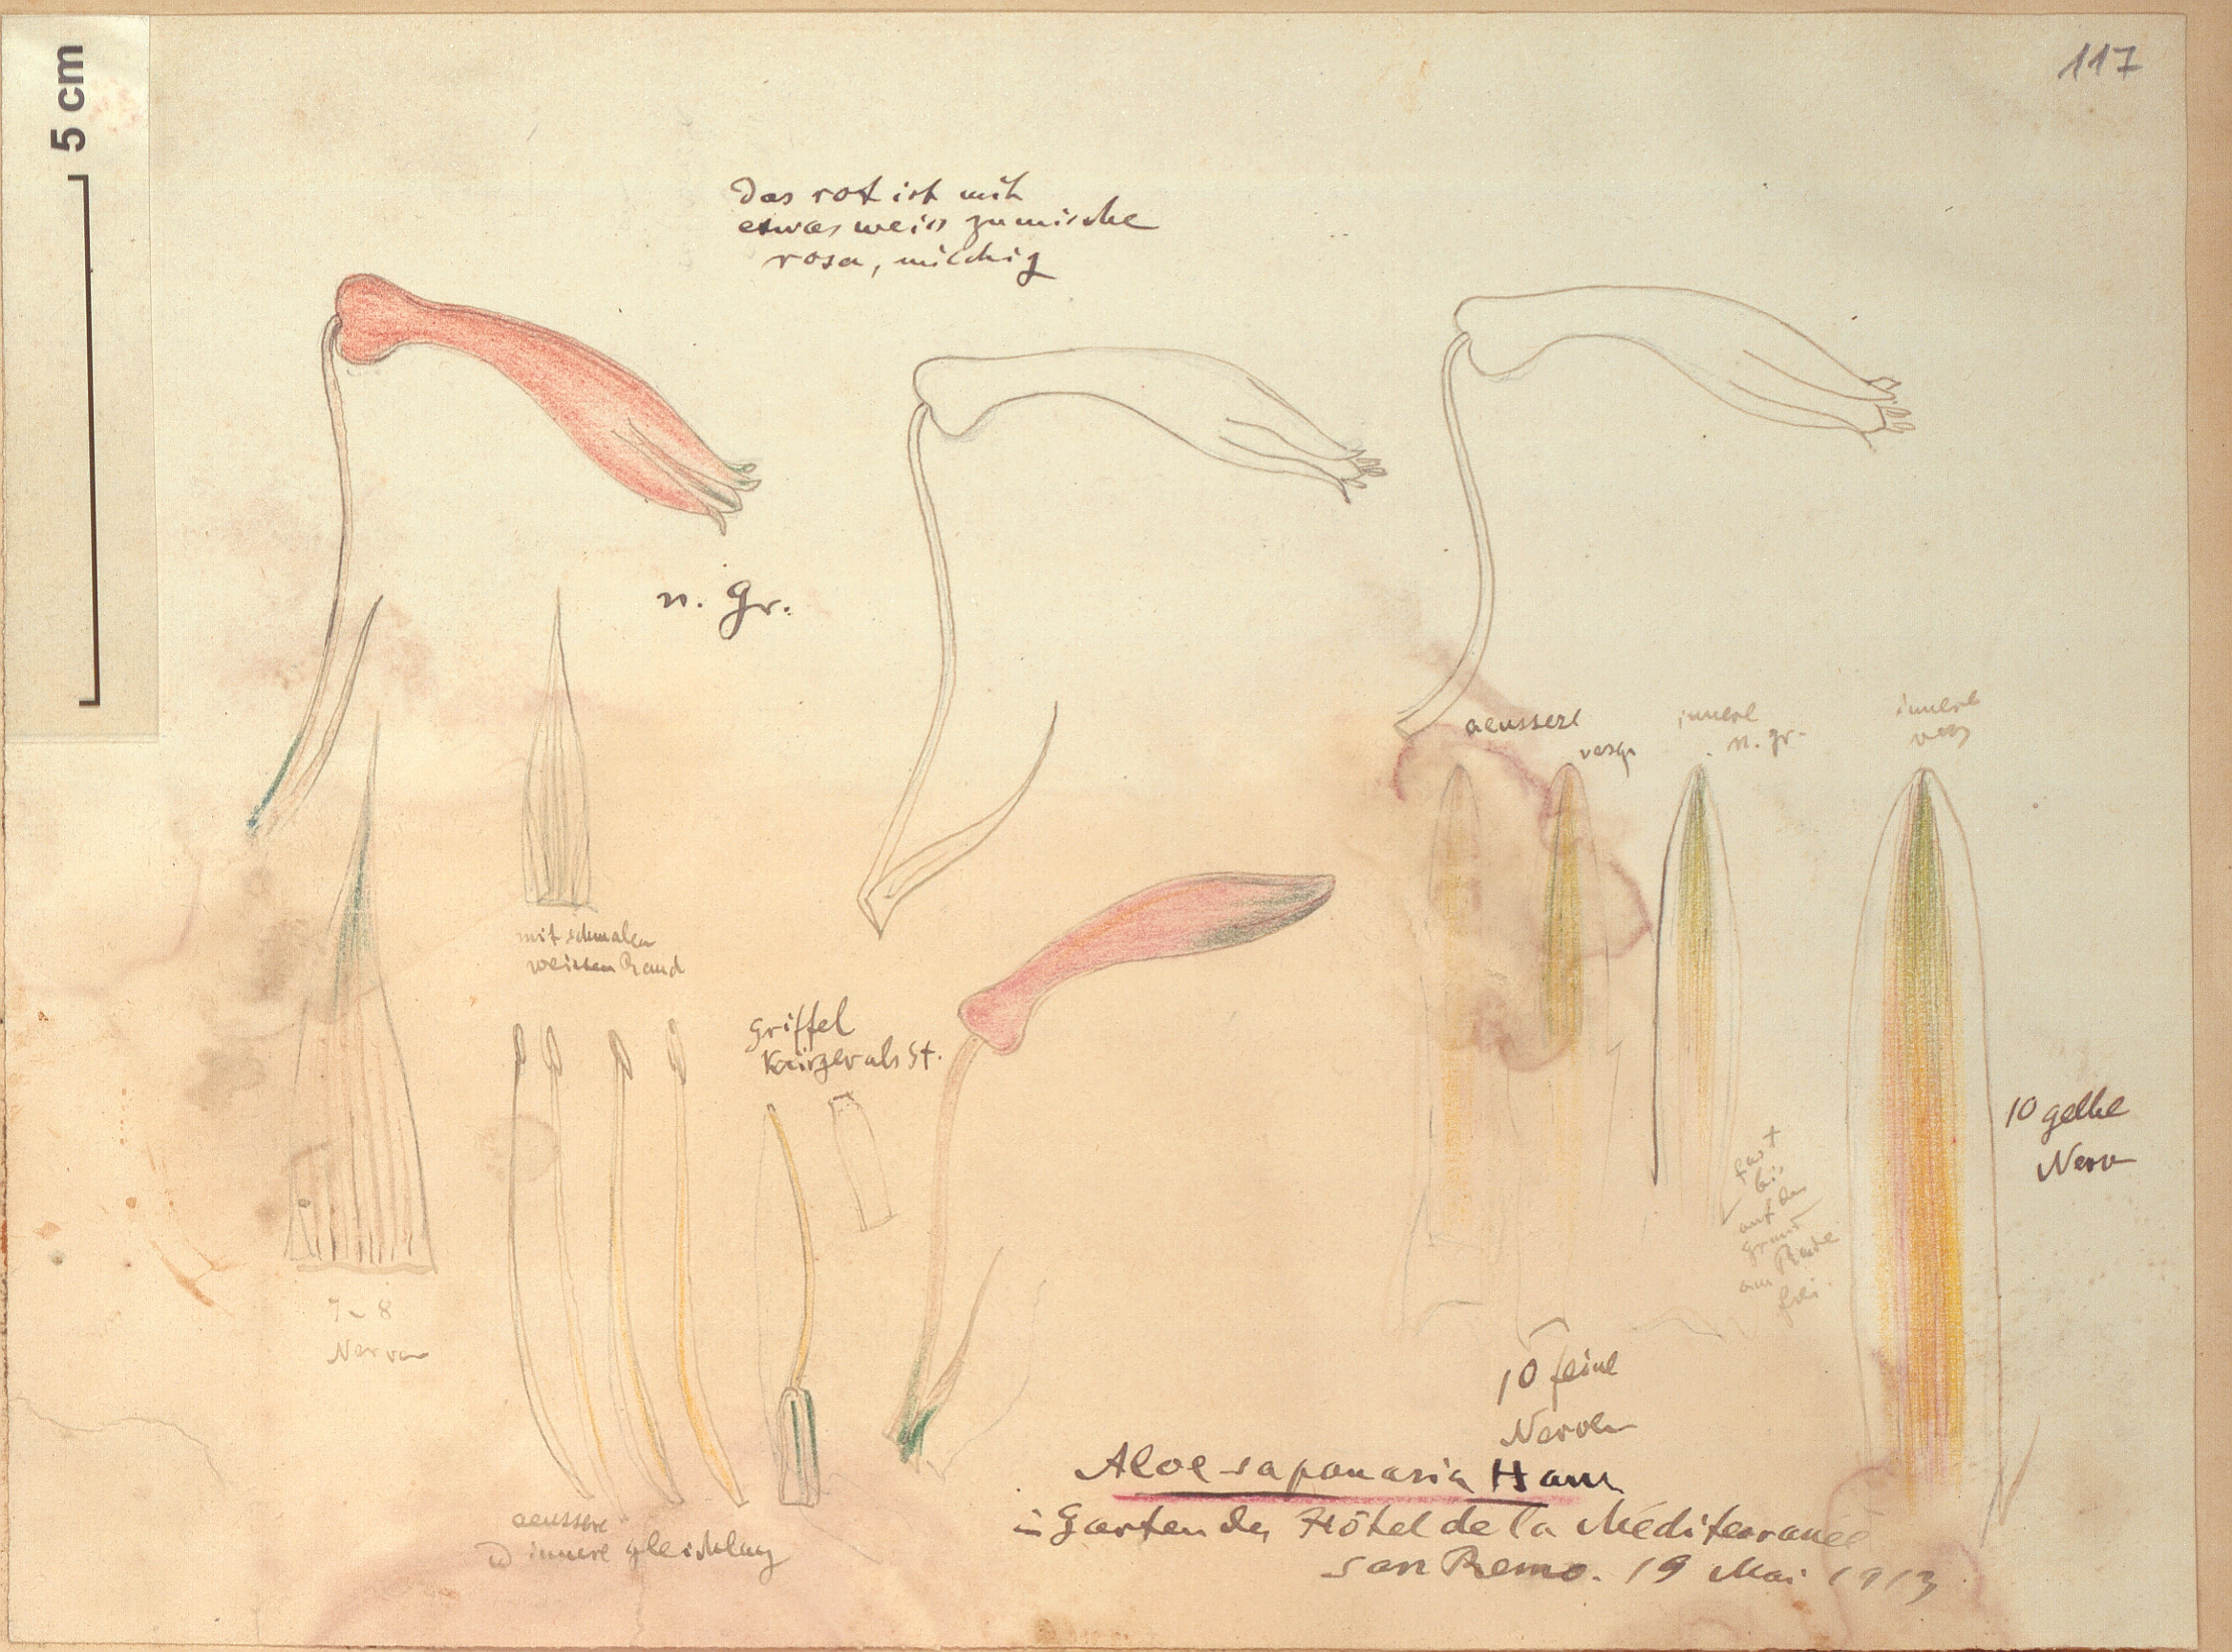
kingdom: Plantae
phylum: Tracheophyta
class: Liliopsida
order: Asparagales
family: Asphodelaceae
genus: Aloe
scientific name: Aloe maculata
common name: Broadleaf aloe
